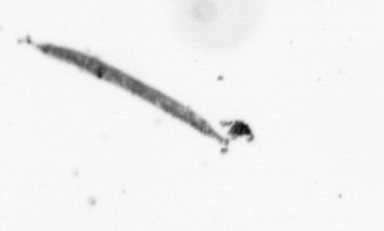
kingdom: Chromista
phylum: Ochrophyta
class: Bacillariophyceae
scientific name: Bacillariophyceae
